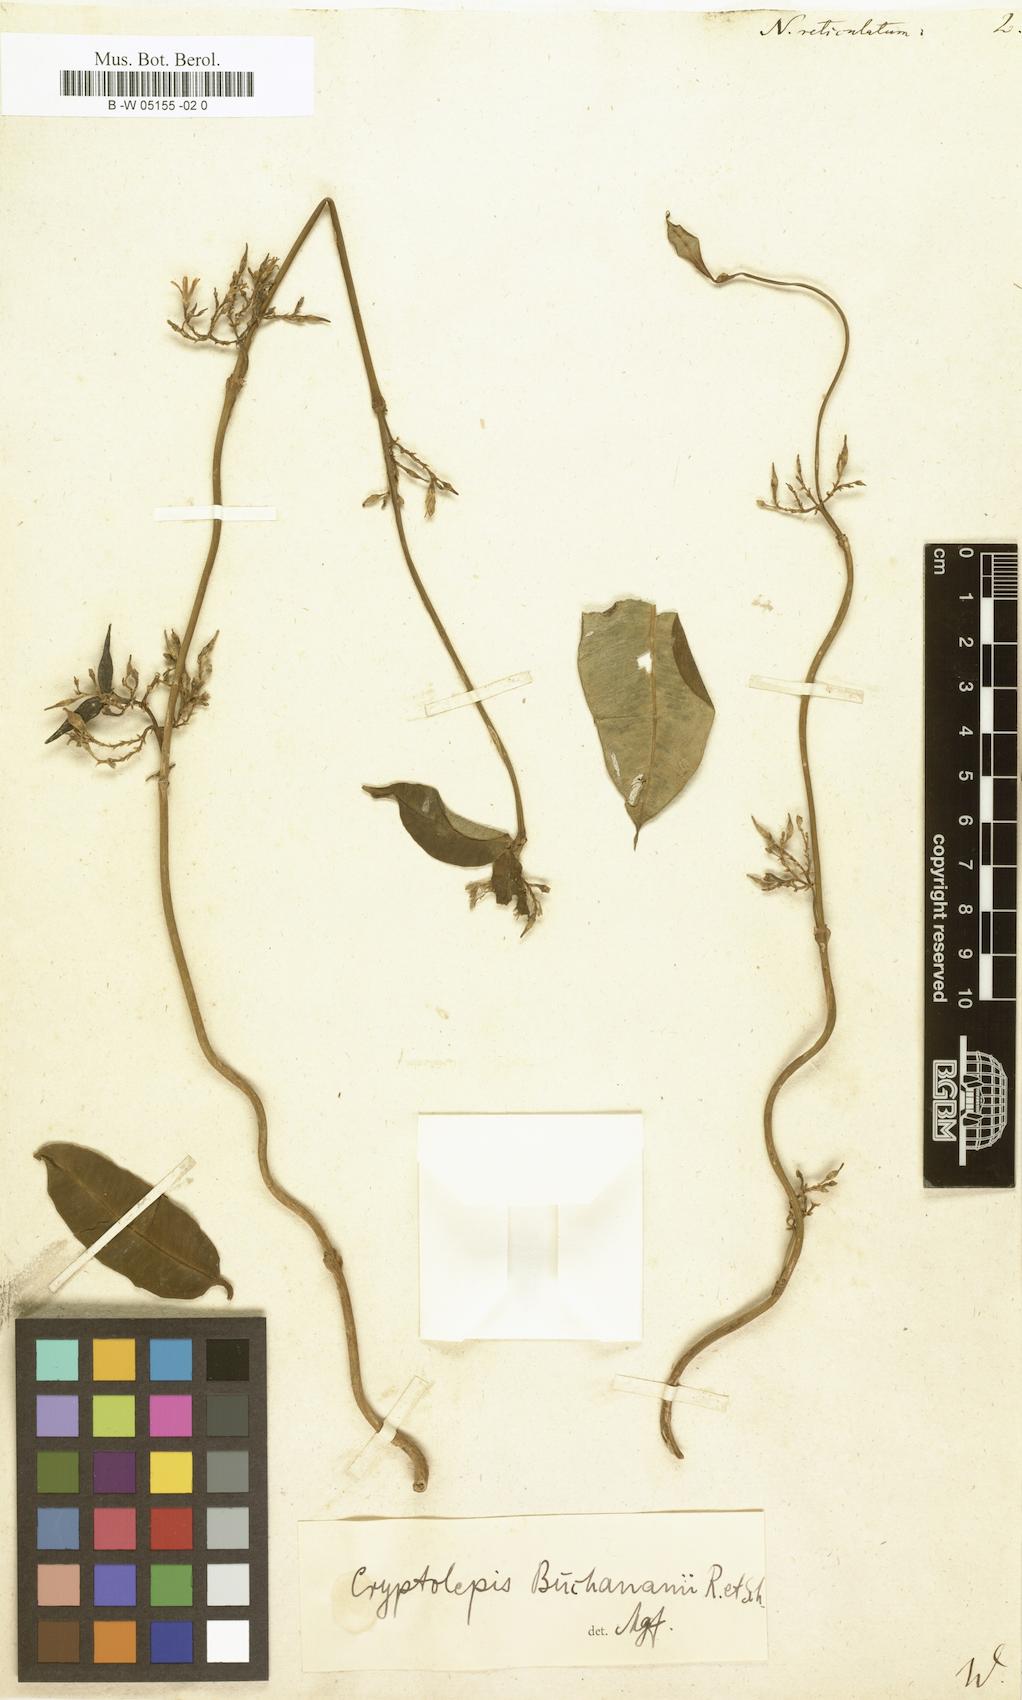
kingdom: Plantae
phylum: Tracheophyta
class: Magnoliopsida
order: Gentianales
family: Apocynaceae
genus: Cryptolepis
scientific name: Cryptolepis buchananii
